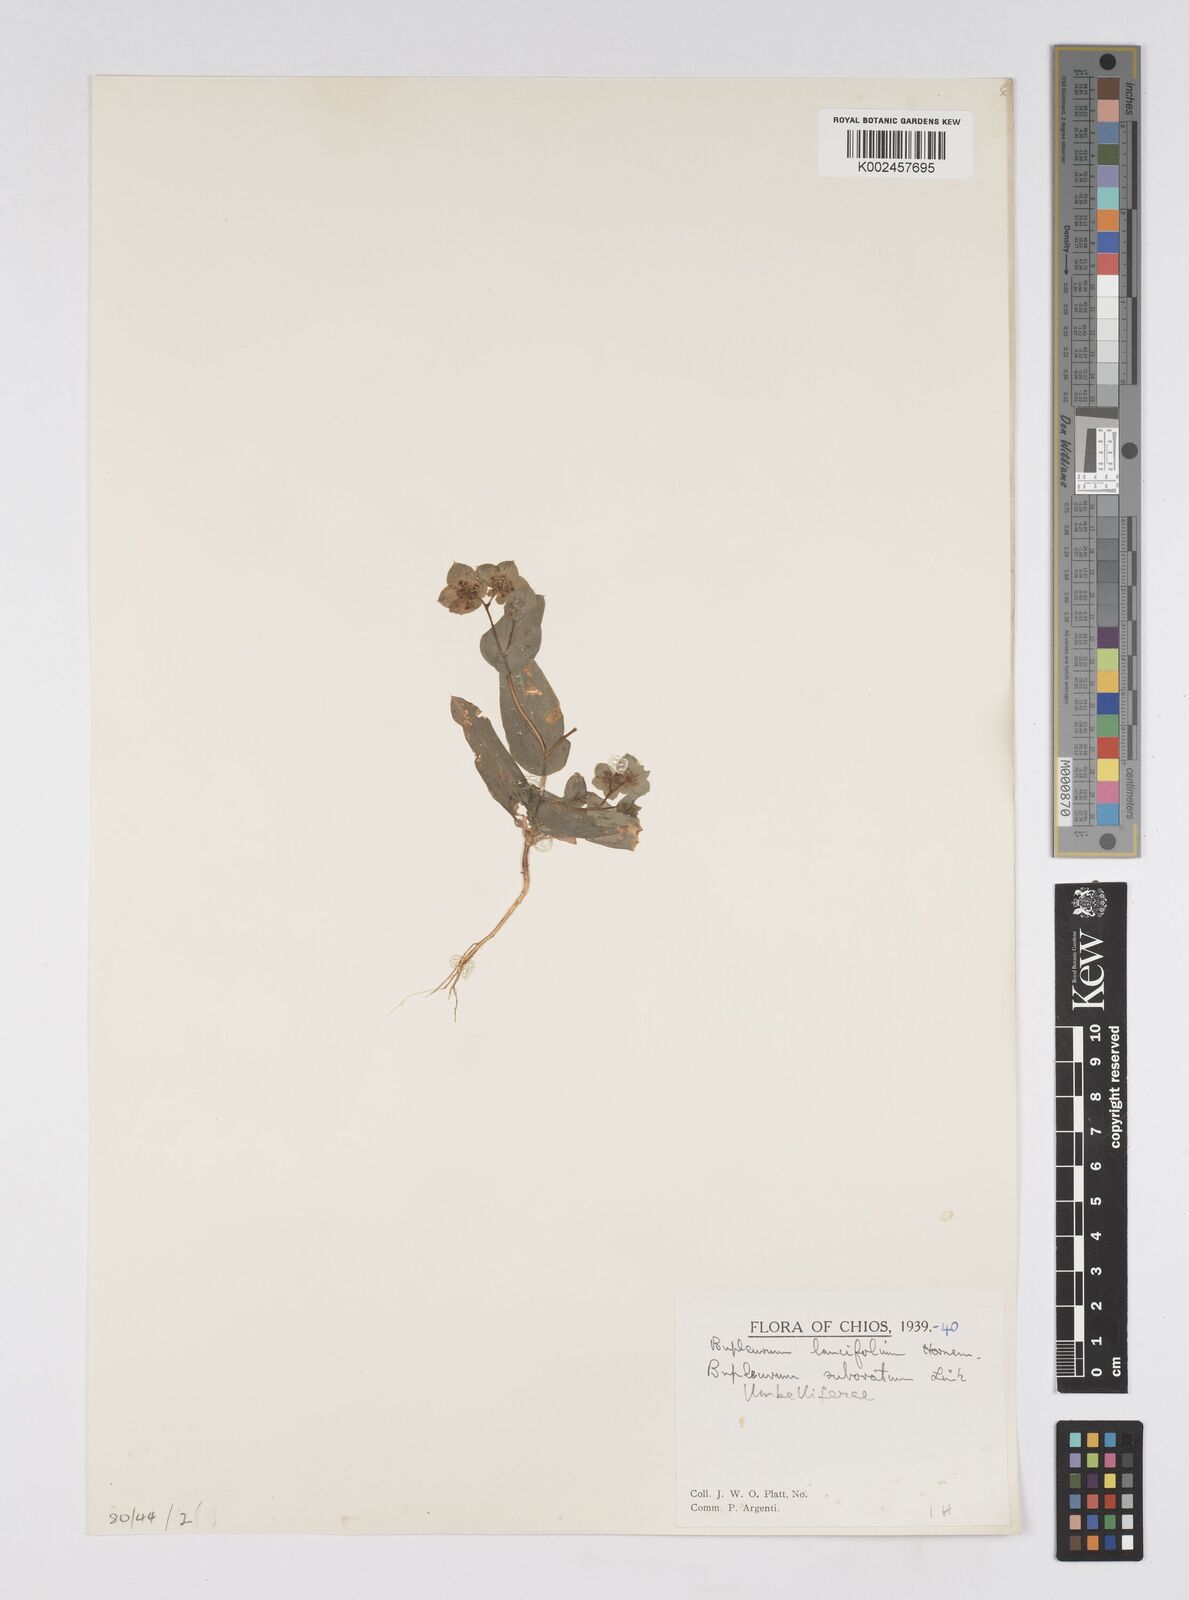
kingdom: Plantae
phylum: Tracheophyta
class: Magnoliopsida
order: Apiales
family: Apiaceae
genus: Bupleurum
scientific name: Bupleurum lancifolium
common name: False thorow-wax
